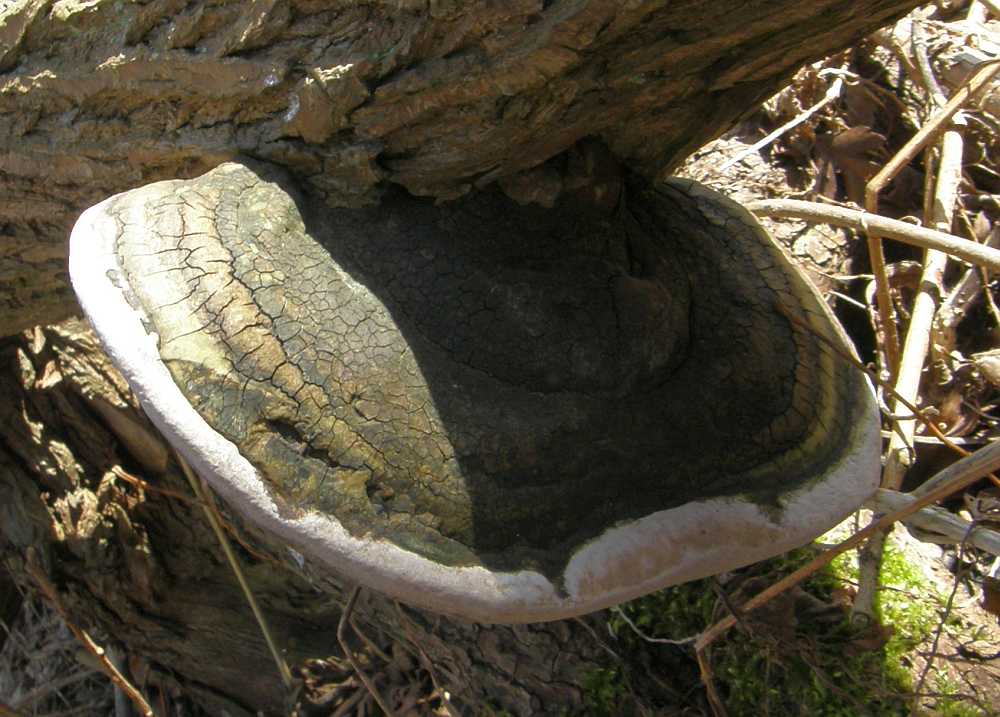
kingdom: Fungi
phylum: Basidiomycota
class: Agaricomycetes
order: Hymenochaetales
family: Hymenochaetaceae
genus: Phellinus
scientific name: Phellinus igniarius
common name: almindelig ildporesvamp
